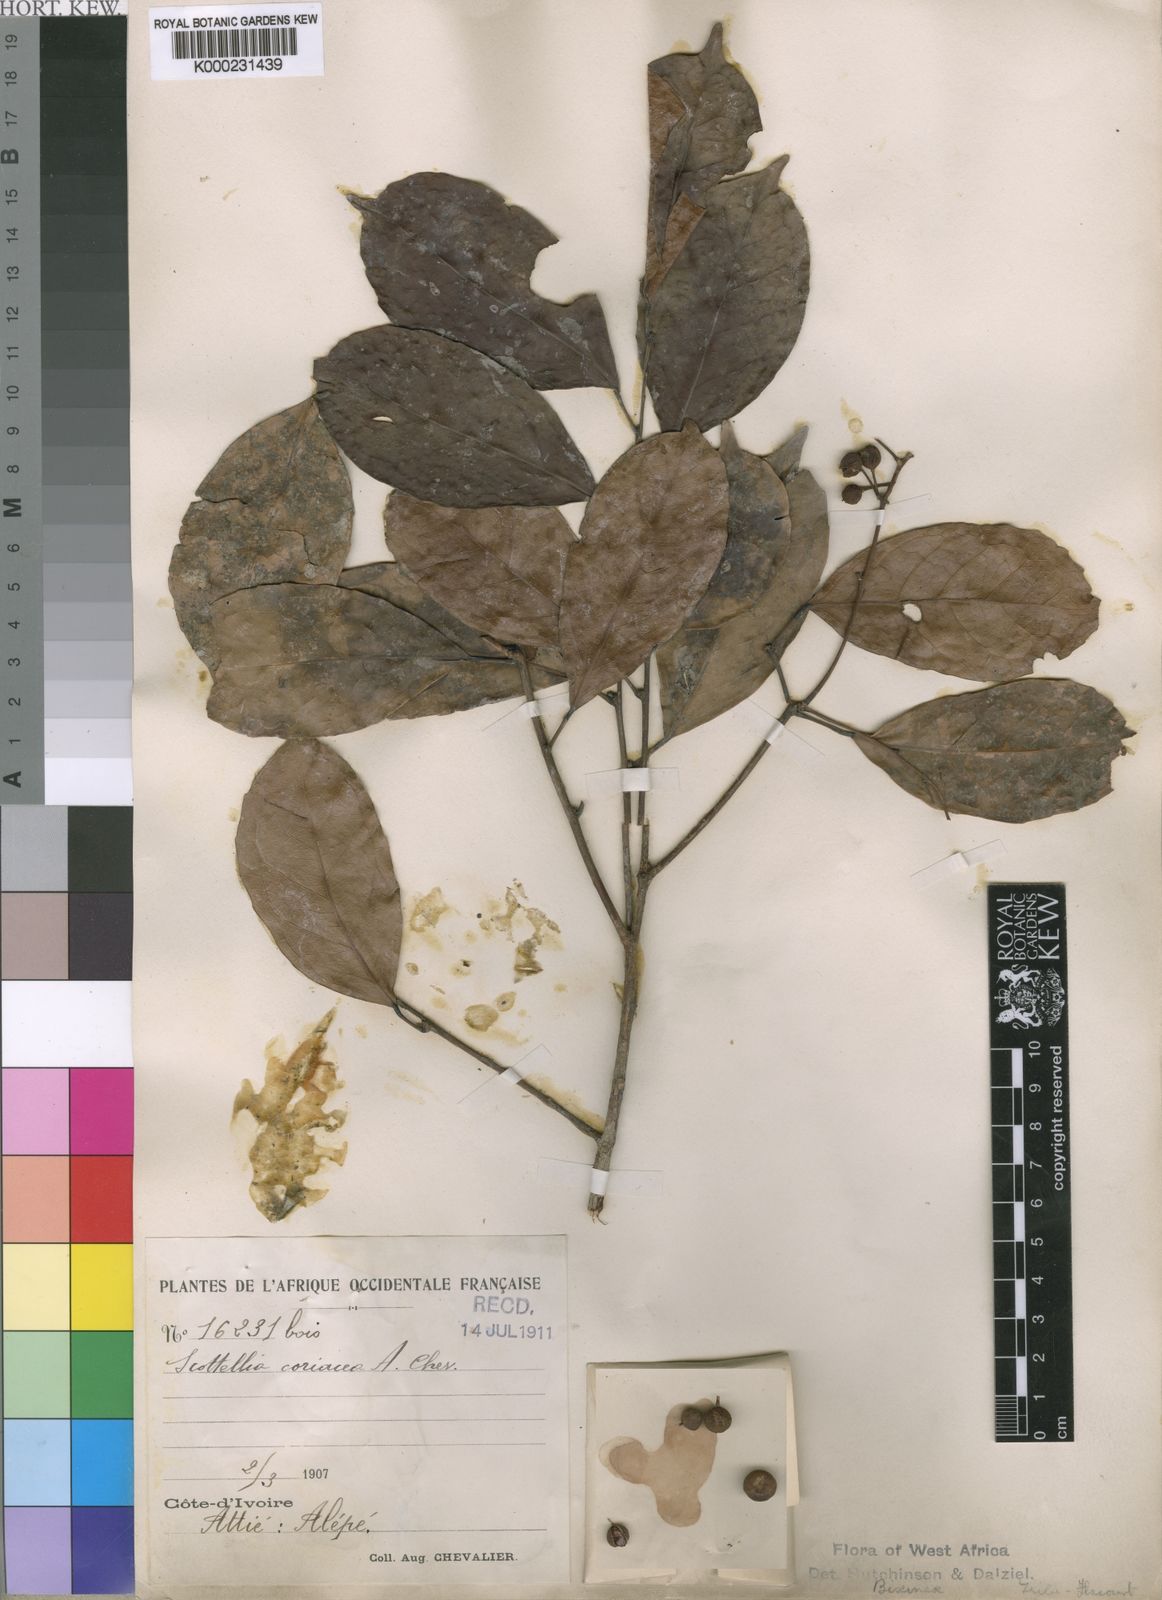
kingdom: Plantae
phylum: Tracheophyta
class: Magnoliopsida
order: Malpighiales
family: Achariaceae
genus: Scottellia
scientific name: Scottellia klaineana
